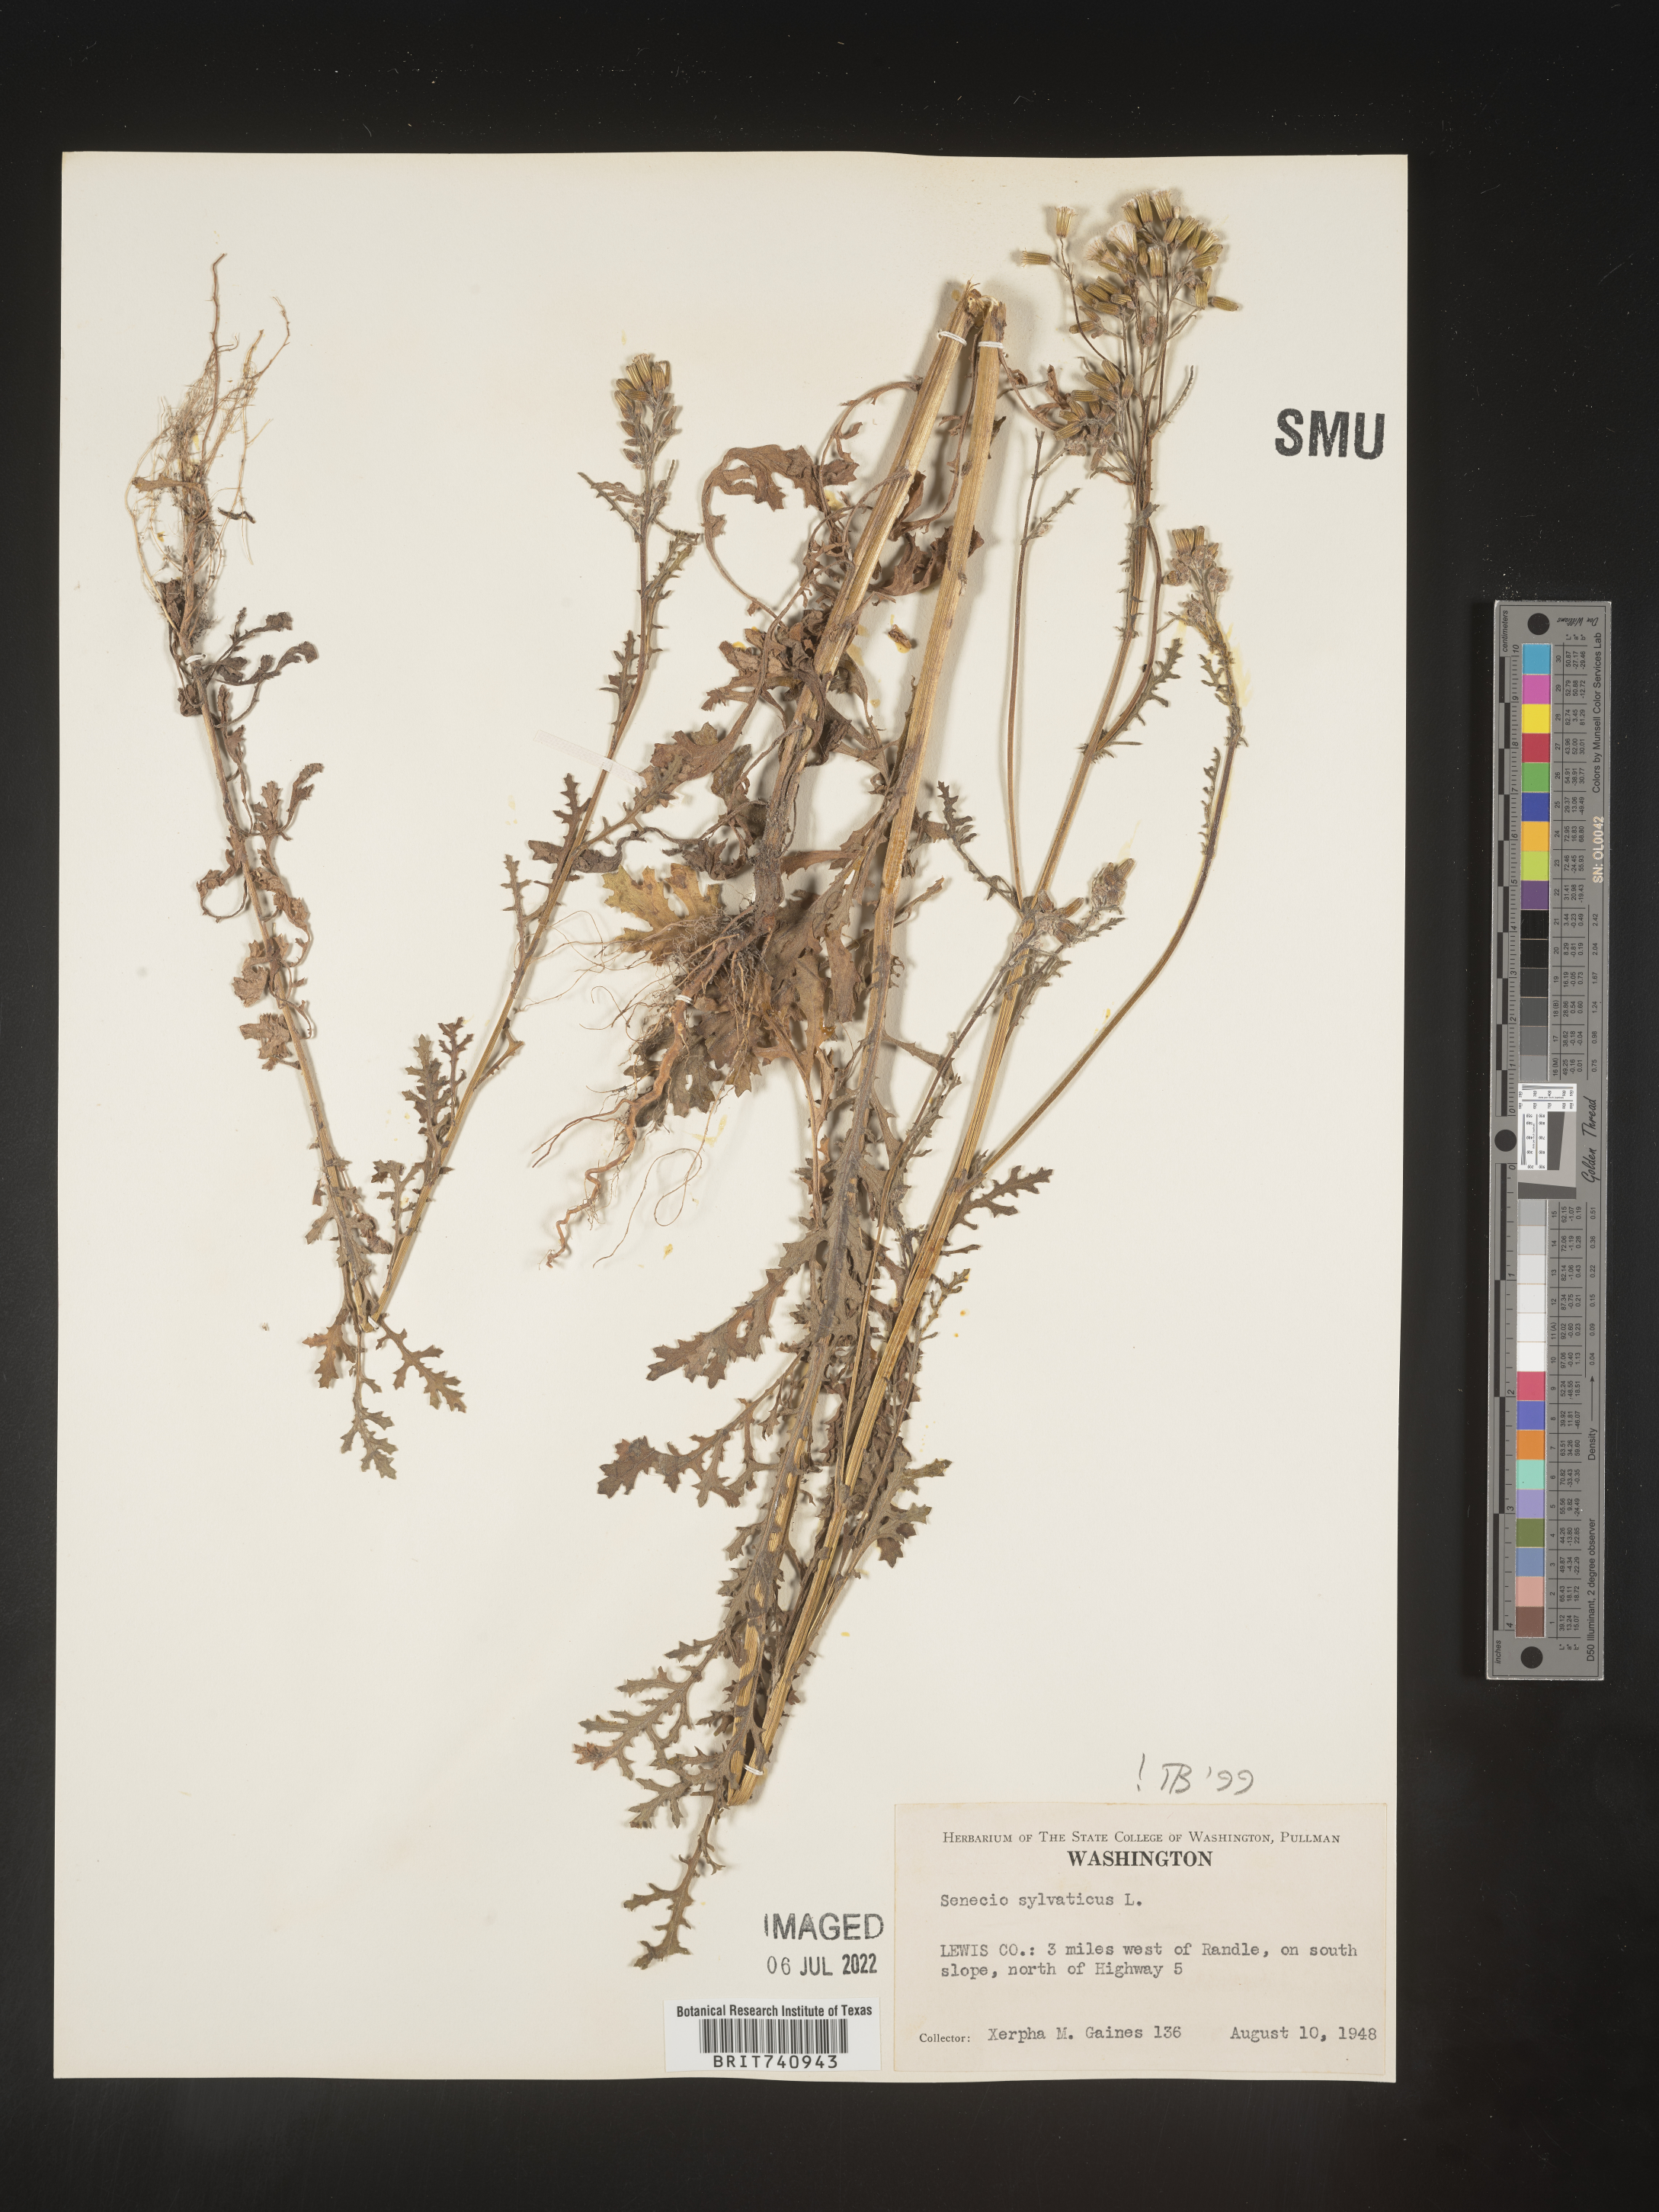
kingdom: Plantae
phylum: Tracheophyta
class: Magnoliopsida
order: Asterales
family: Asteraceae
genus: Senecio
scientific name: Senecio sylvaticus
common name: Woodland ragwort
